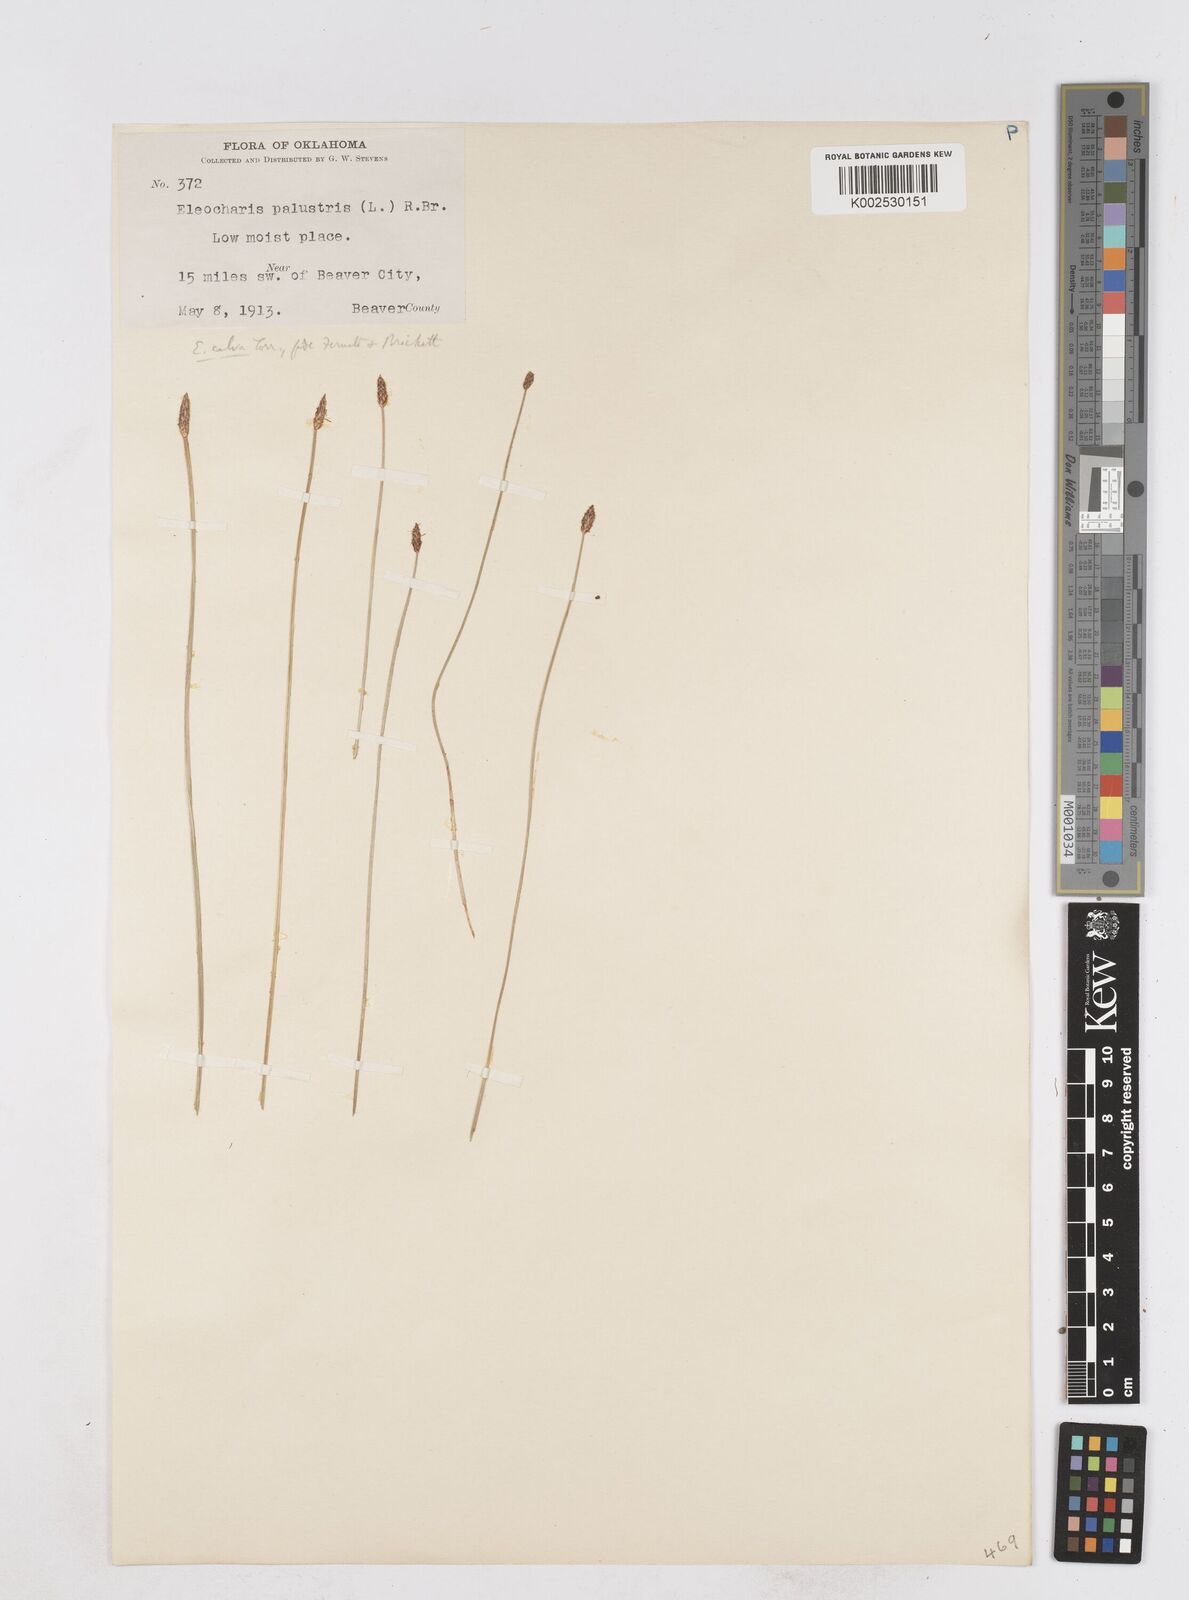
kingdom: Plantae
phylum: Tracheophyta
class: Liliopsida
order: Poales
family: Cyperaceae
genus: Eleocharis
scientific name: Eleocharis erythropoda
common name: Bald spikerush
